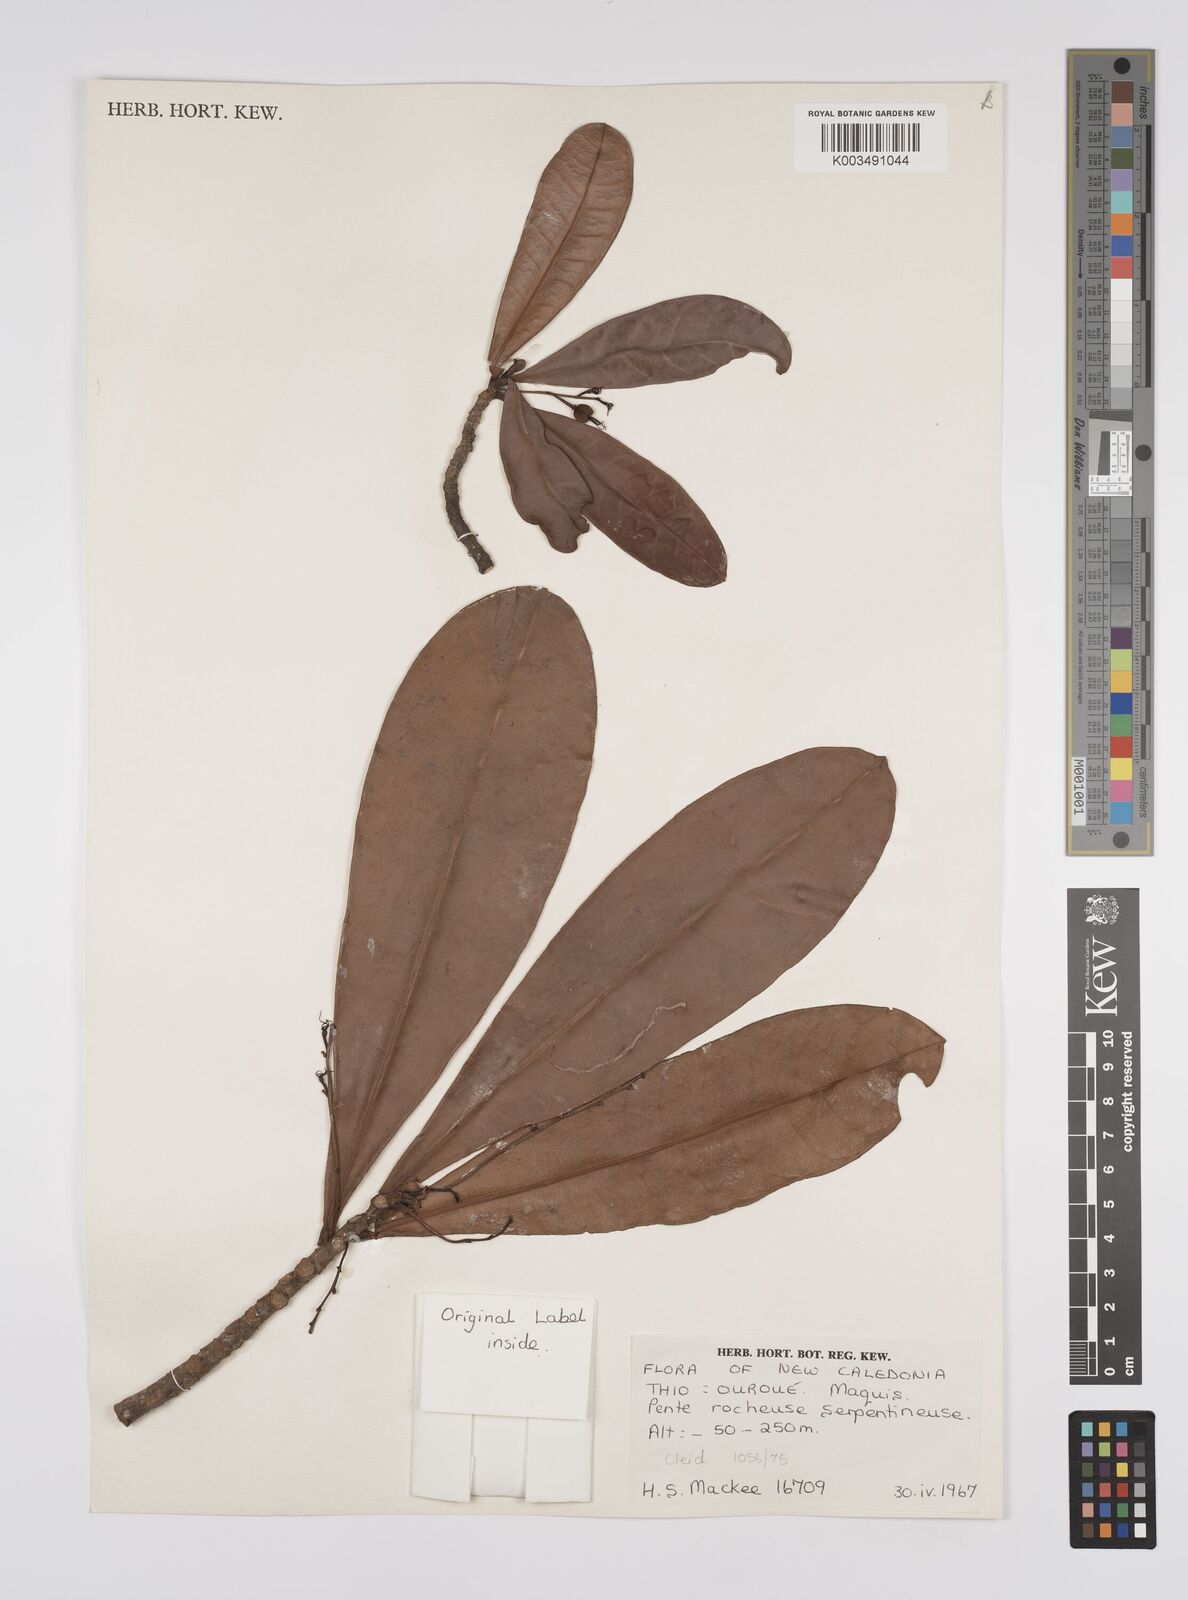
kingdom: Plantae
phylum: Tracheophyta
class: Magnoliopsida
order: Malpighiales
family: Euphorbiaceae
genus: Cleidion
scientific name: Cleidion vieillardii
